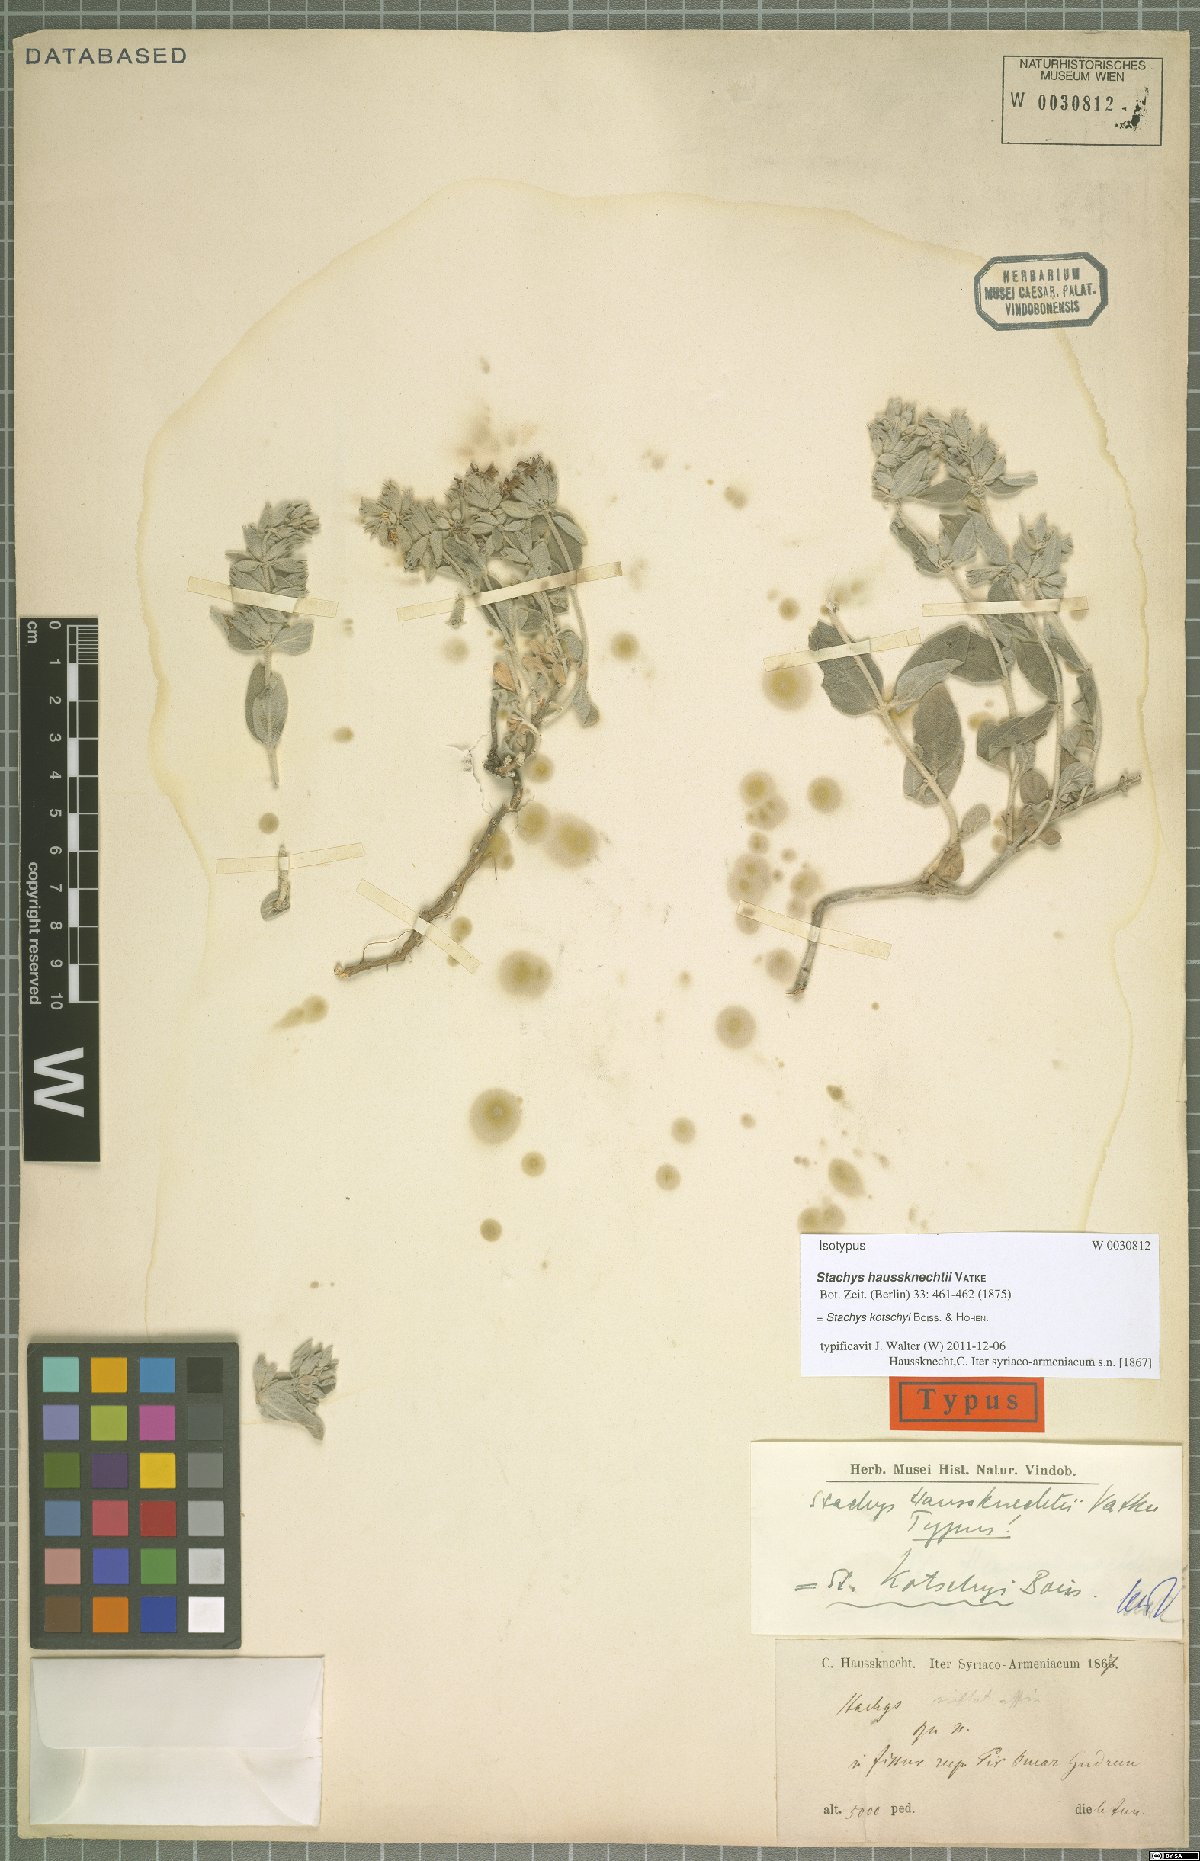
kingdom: Plantae
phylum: Tracheophyta
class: Magnoliopsida
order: Lamiales
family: Lamiaceae
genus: Stachys
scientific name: Stachys kotschyi
